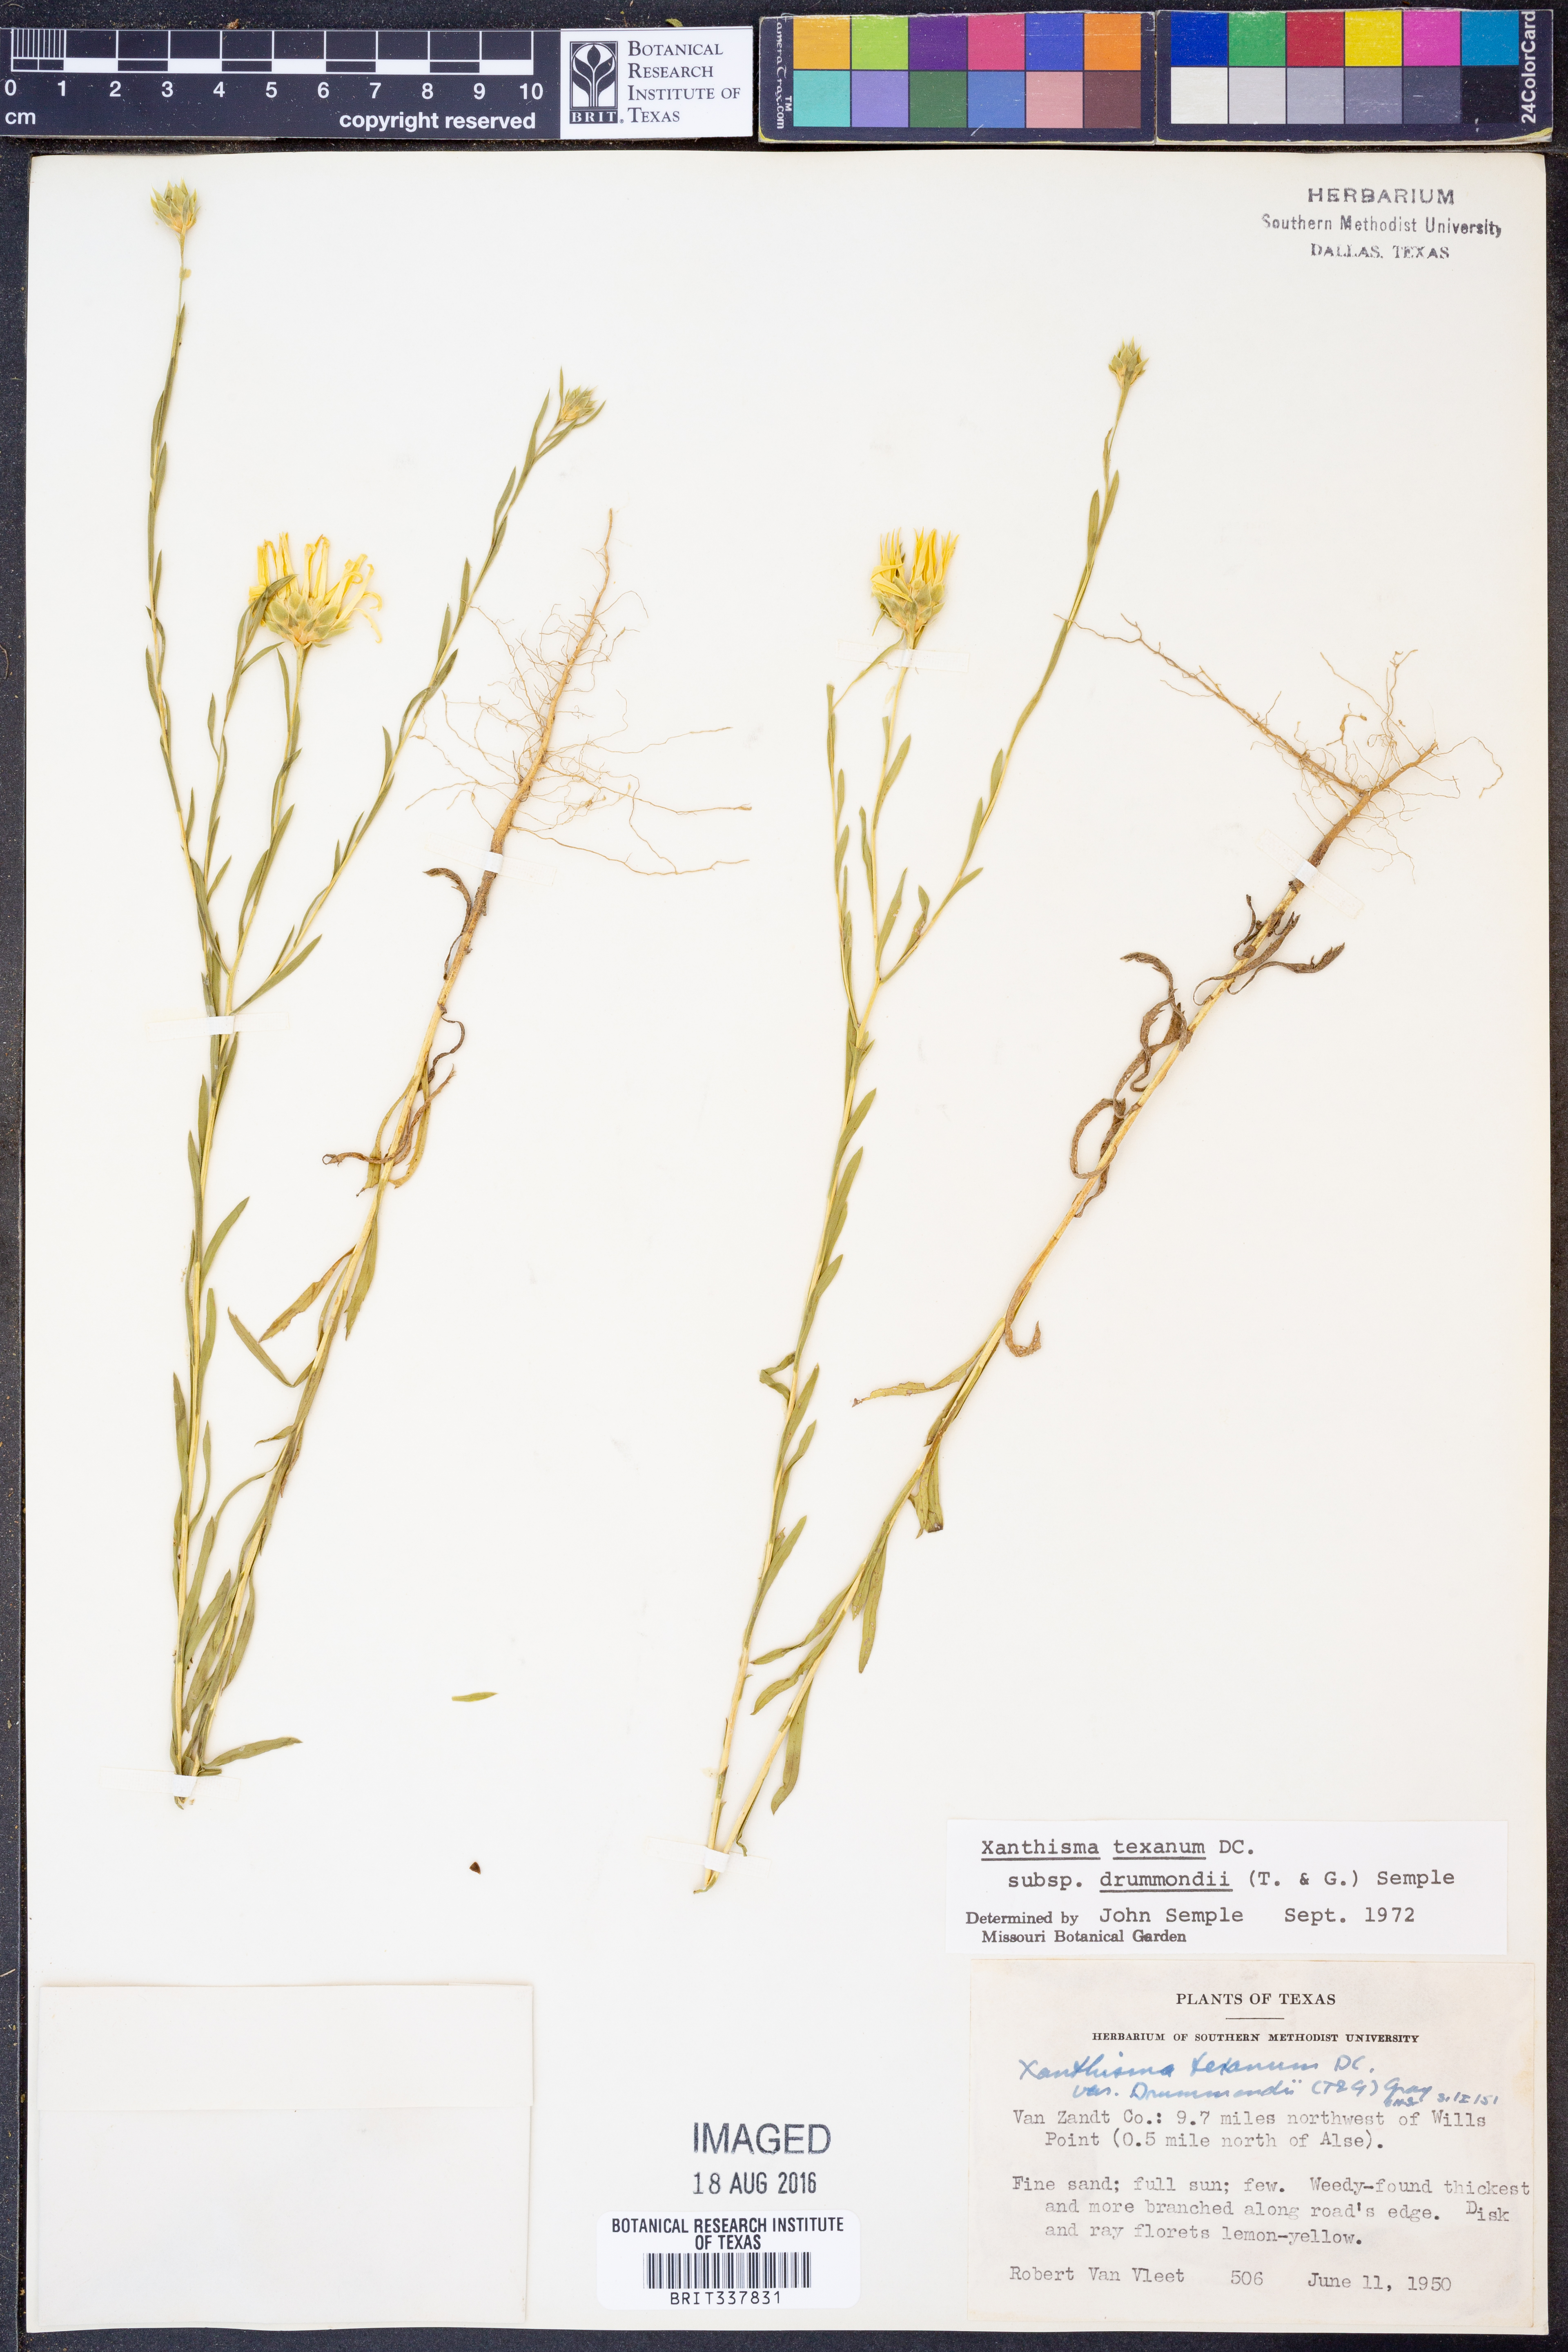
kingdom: Plantae
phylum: Tracheophyta
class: Magnoliopsida
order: Asterales
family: Asteraceae
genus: Xanthisma
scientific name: Xanthisma texanum
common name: Texas sleepy daisy
